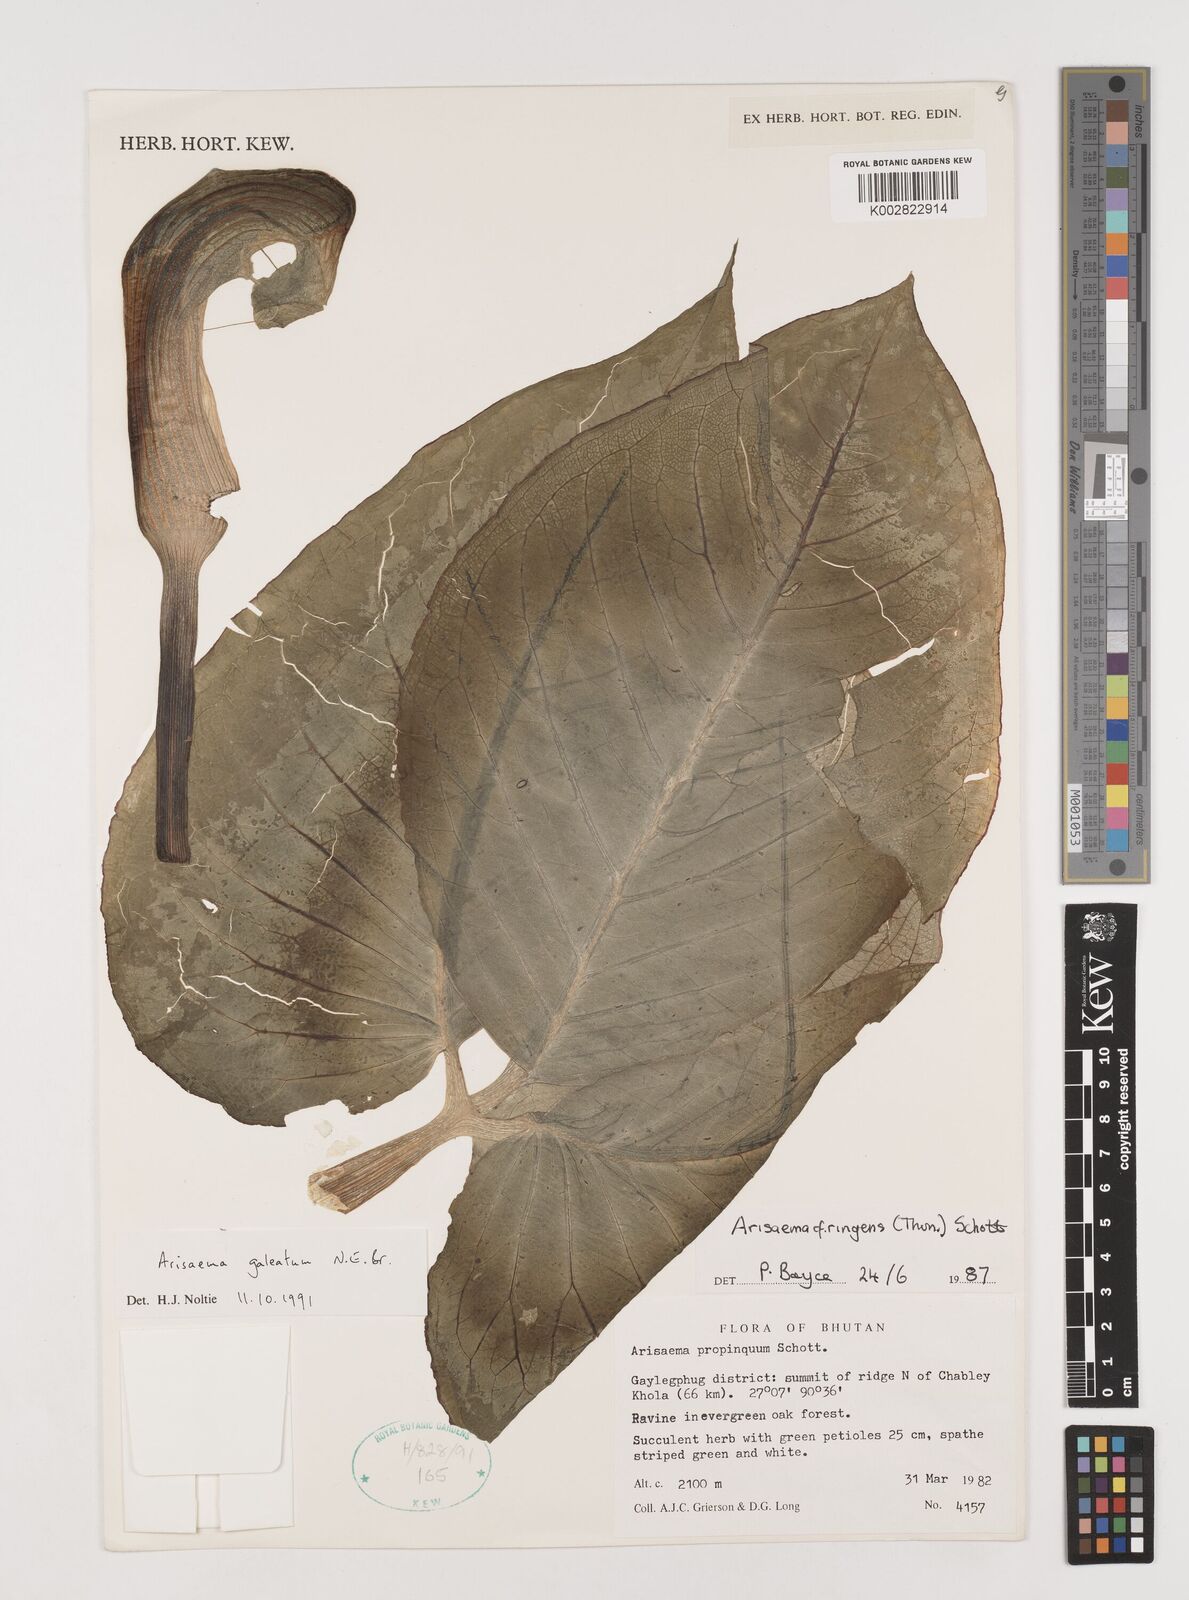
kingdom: Plantae
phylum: Tracheophyta
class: Liliopsida
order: Alismatales
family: Araceae
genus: Arisaema
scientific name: Arisaema galeatum
